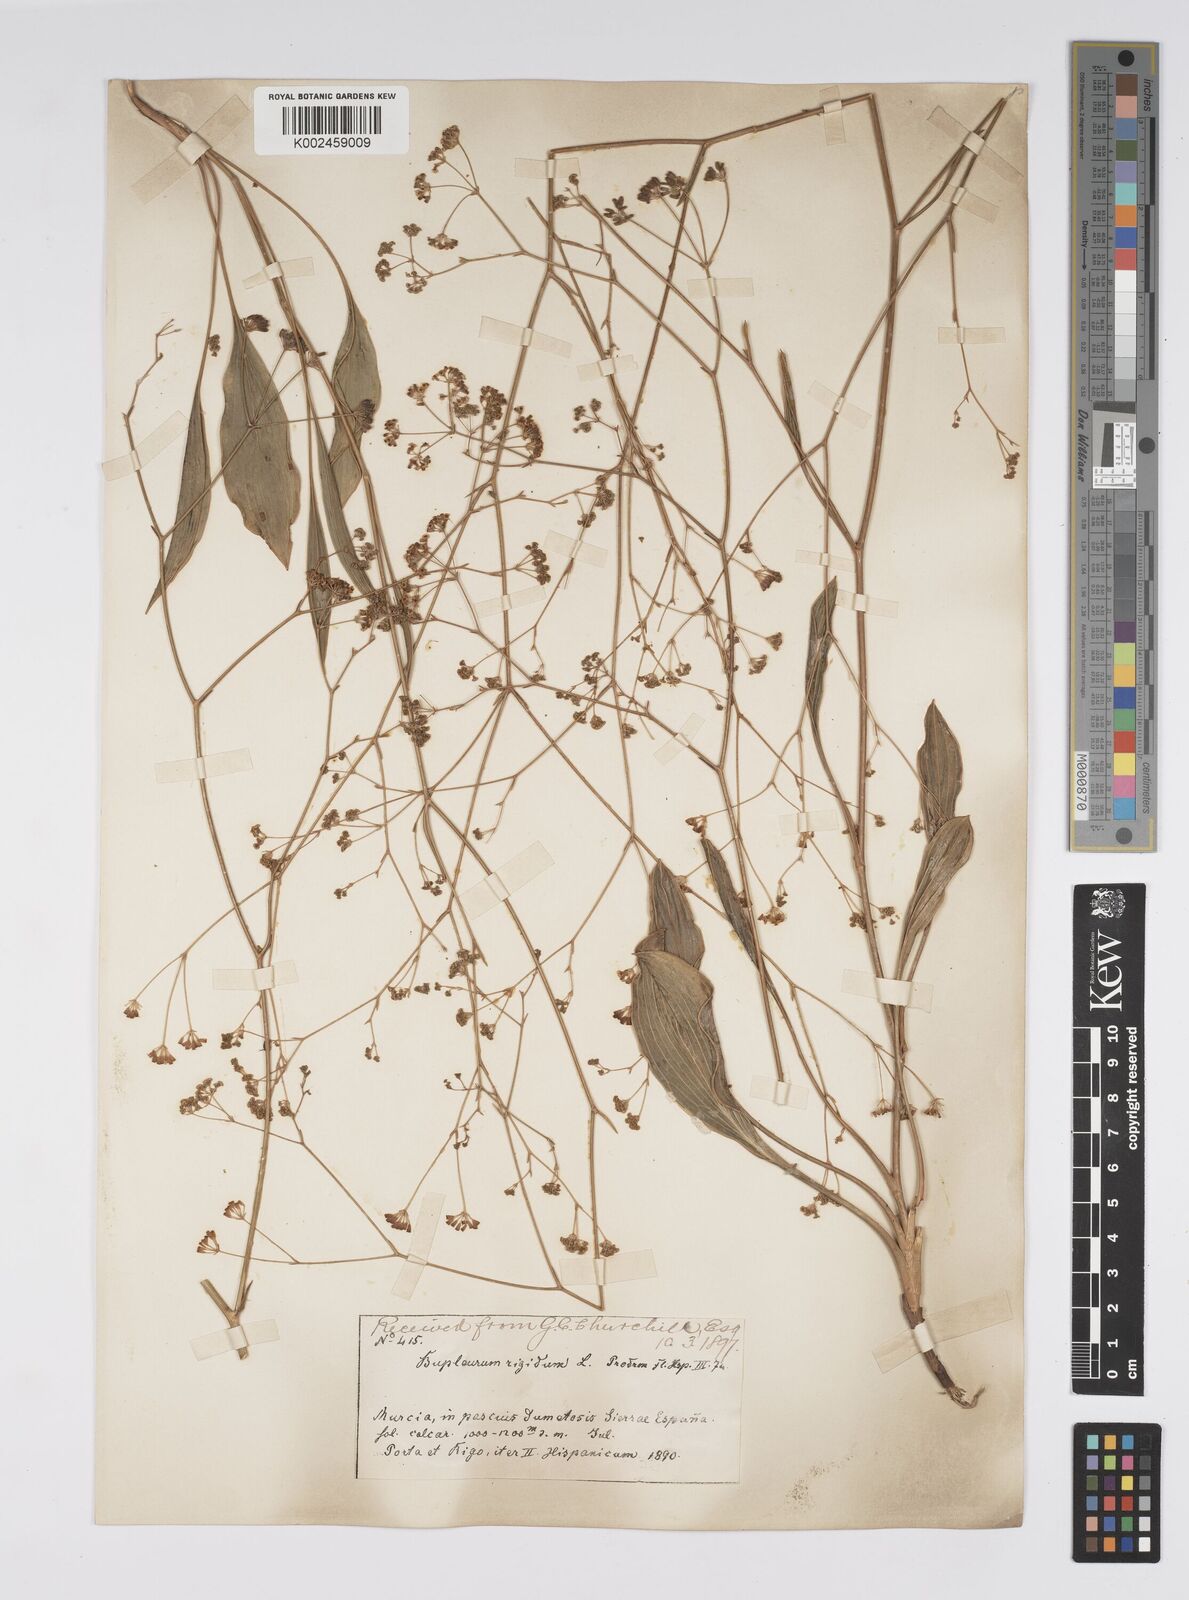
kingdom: Plantae
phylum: Tracheophyta
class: Magnoliopsida
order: Apiales
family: Apiaceae
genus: Bupleurum
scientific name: Bupleurum rigidum
